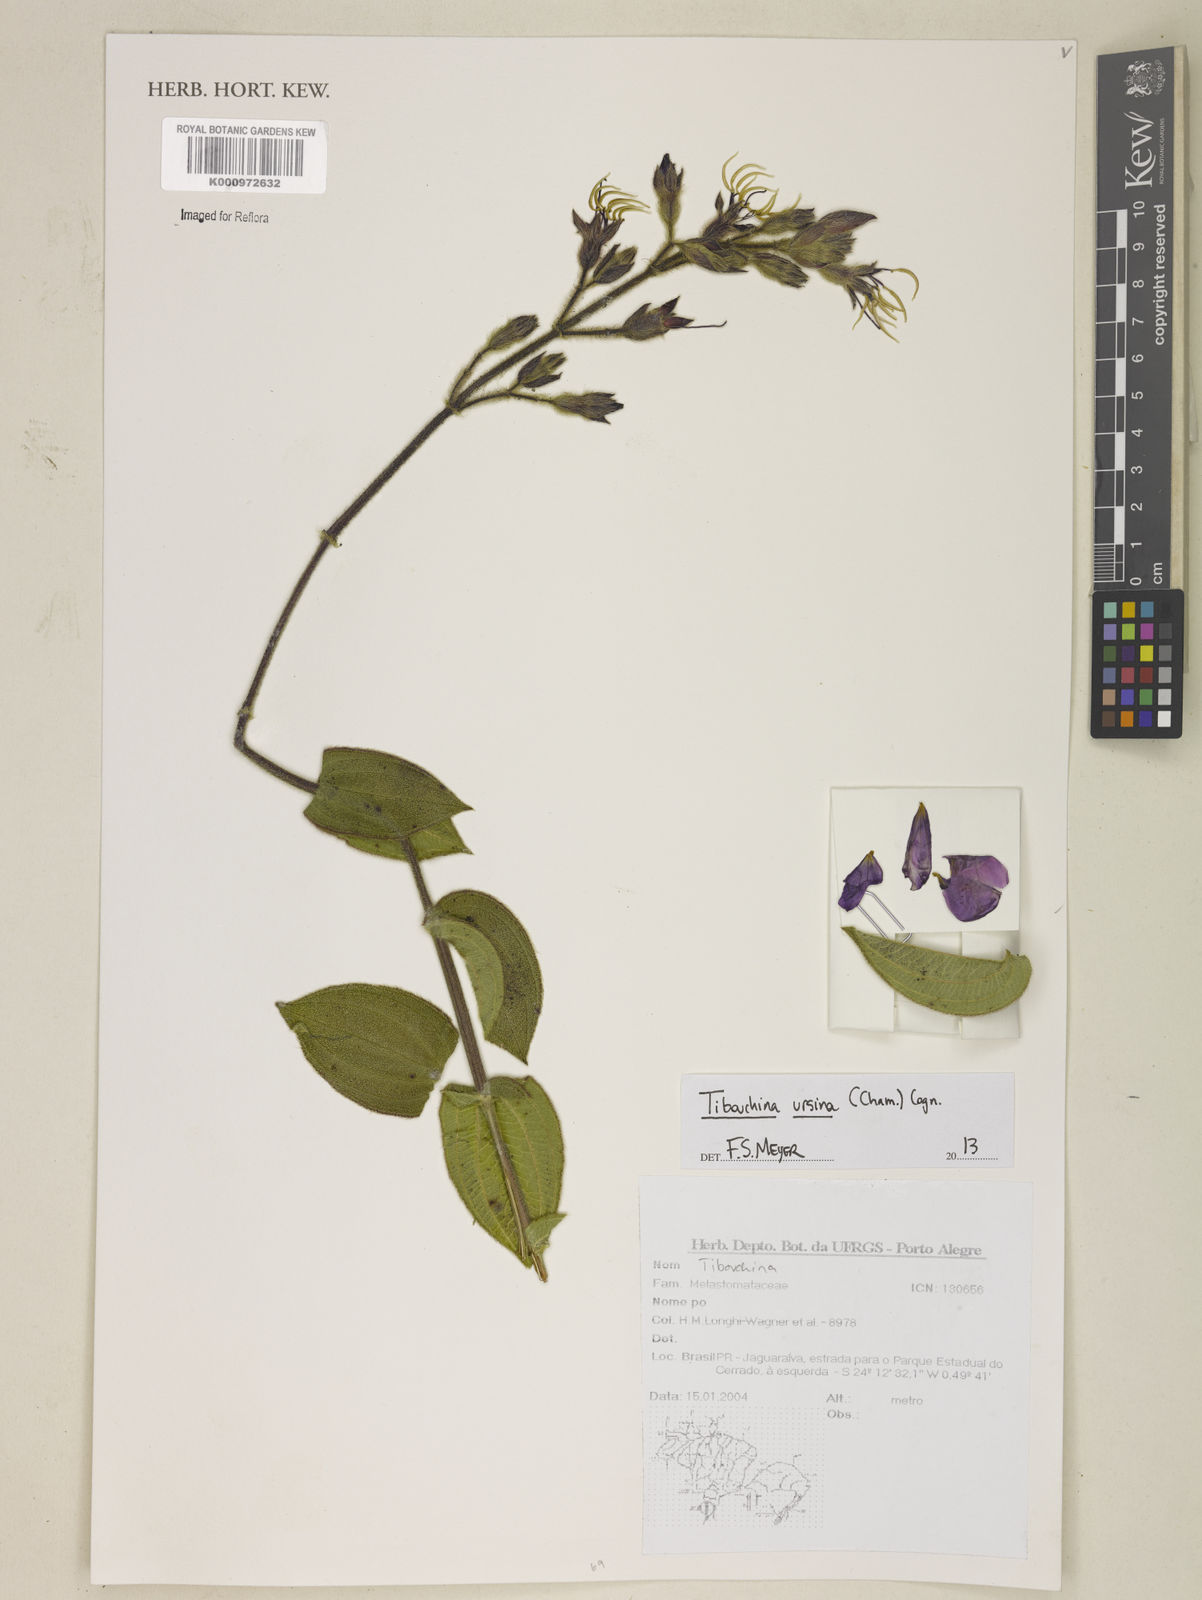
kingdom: Plantae
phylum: Tracheophyta
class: Magnoliopsida
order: Myrtales
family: Melastomataceae
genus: Pleroma
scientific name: Pleroma ursinum
